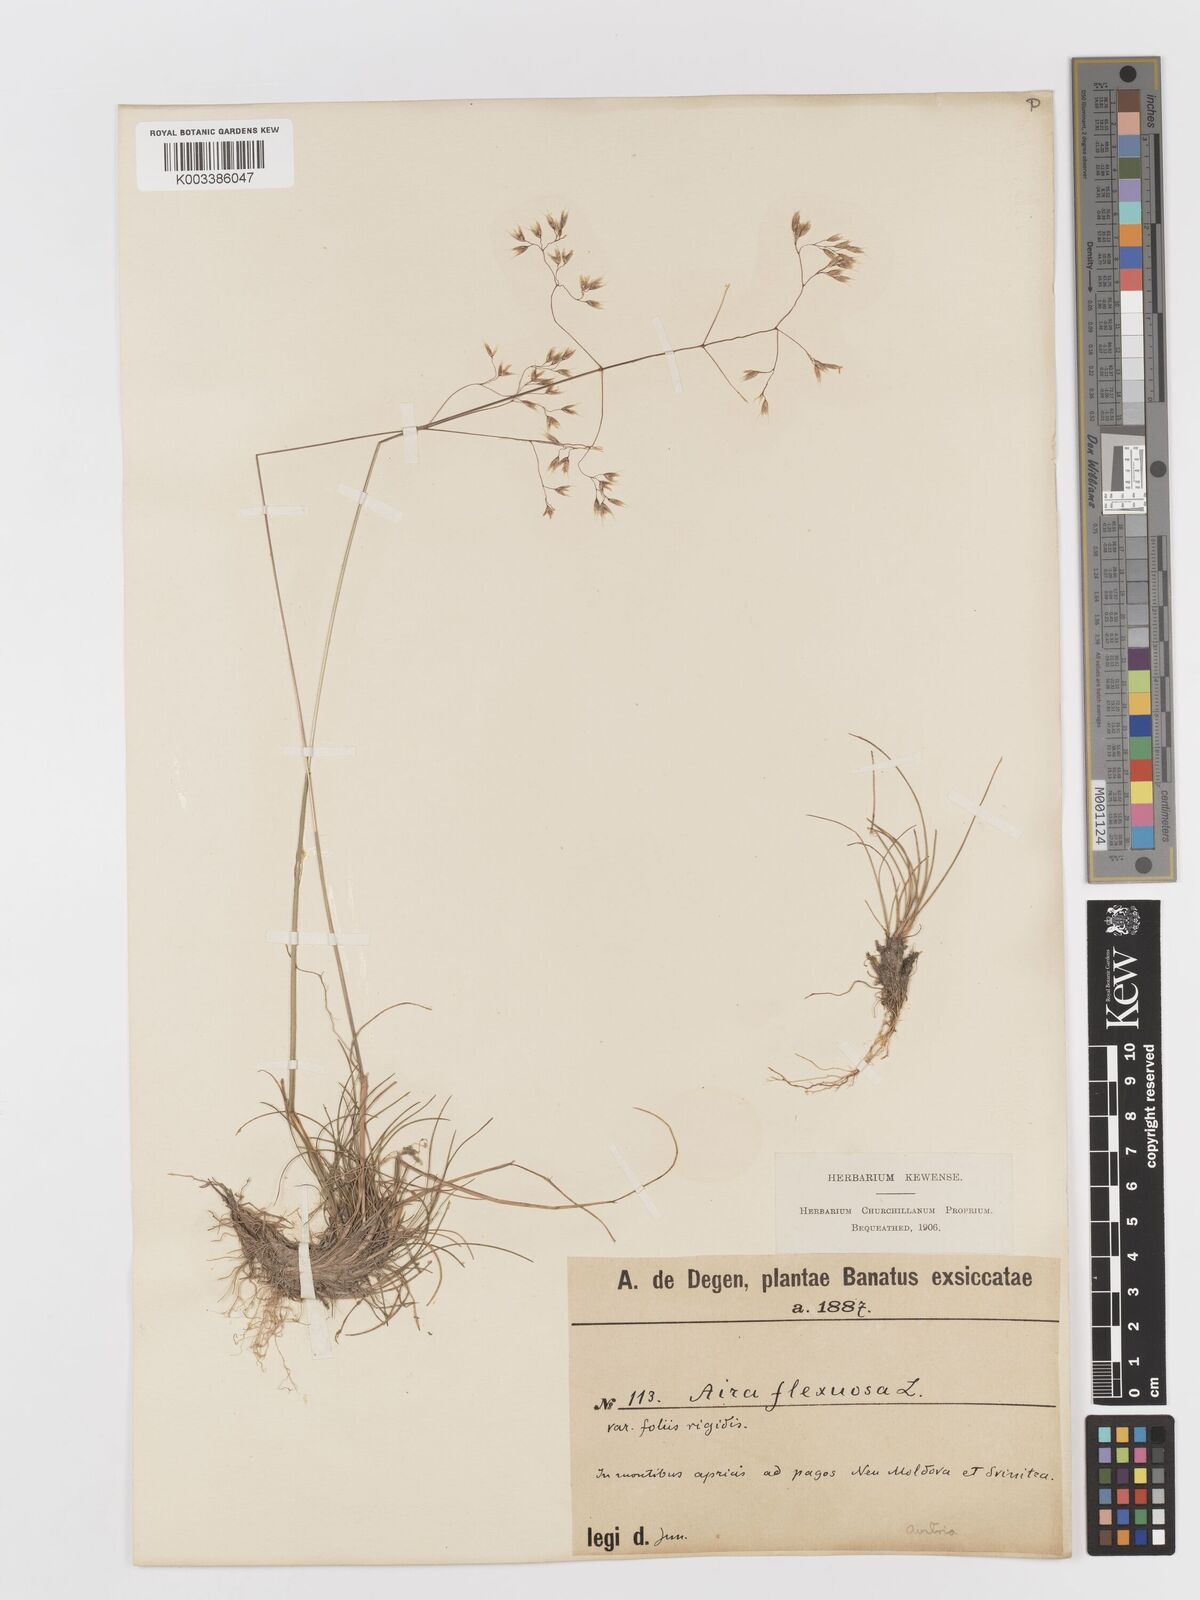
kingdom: Plantae
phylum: Tracheophyta
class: Liliopsida
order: Poales
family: Poaceae
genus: Avenella
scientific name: Avenella flexuosa
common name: Wavy hairgrass
